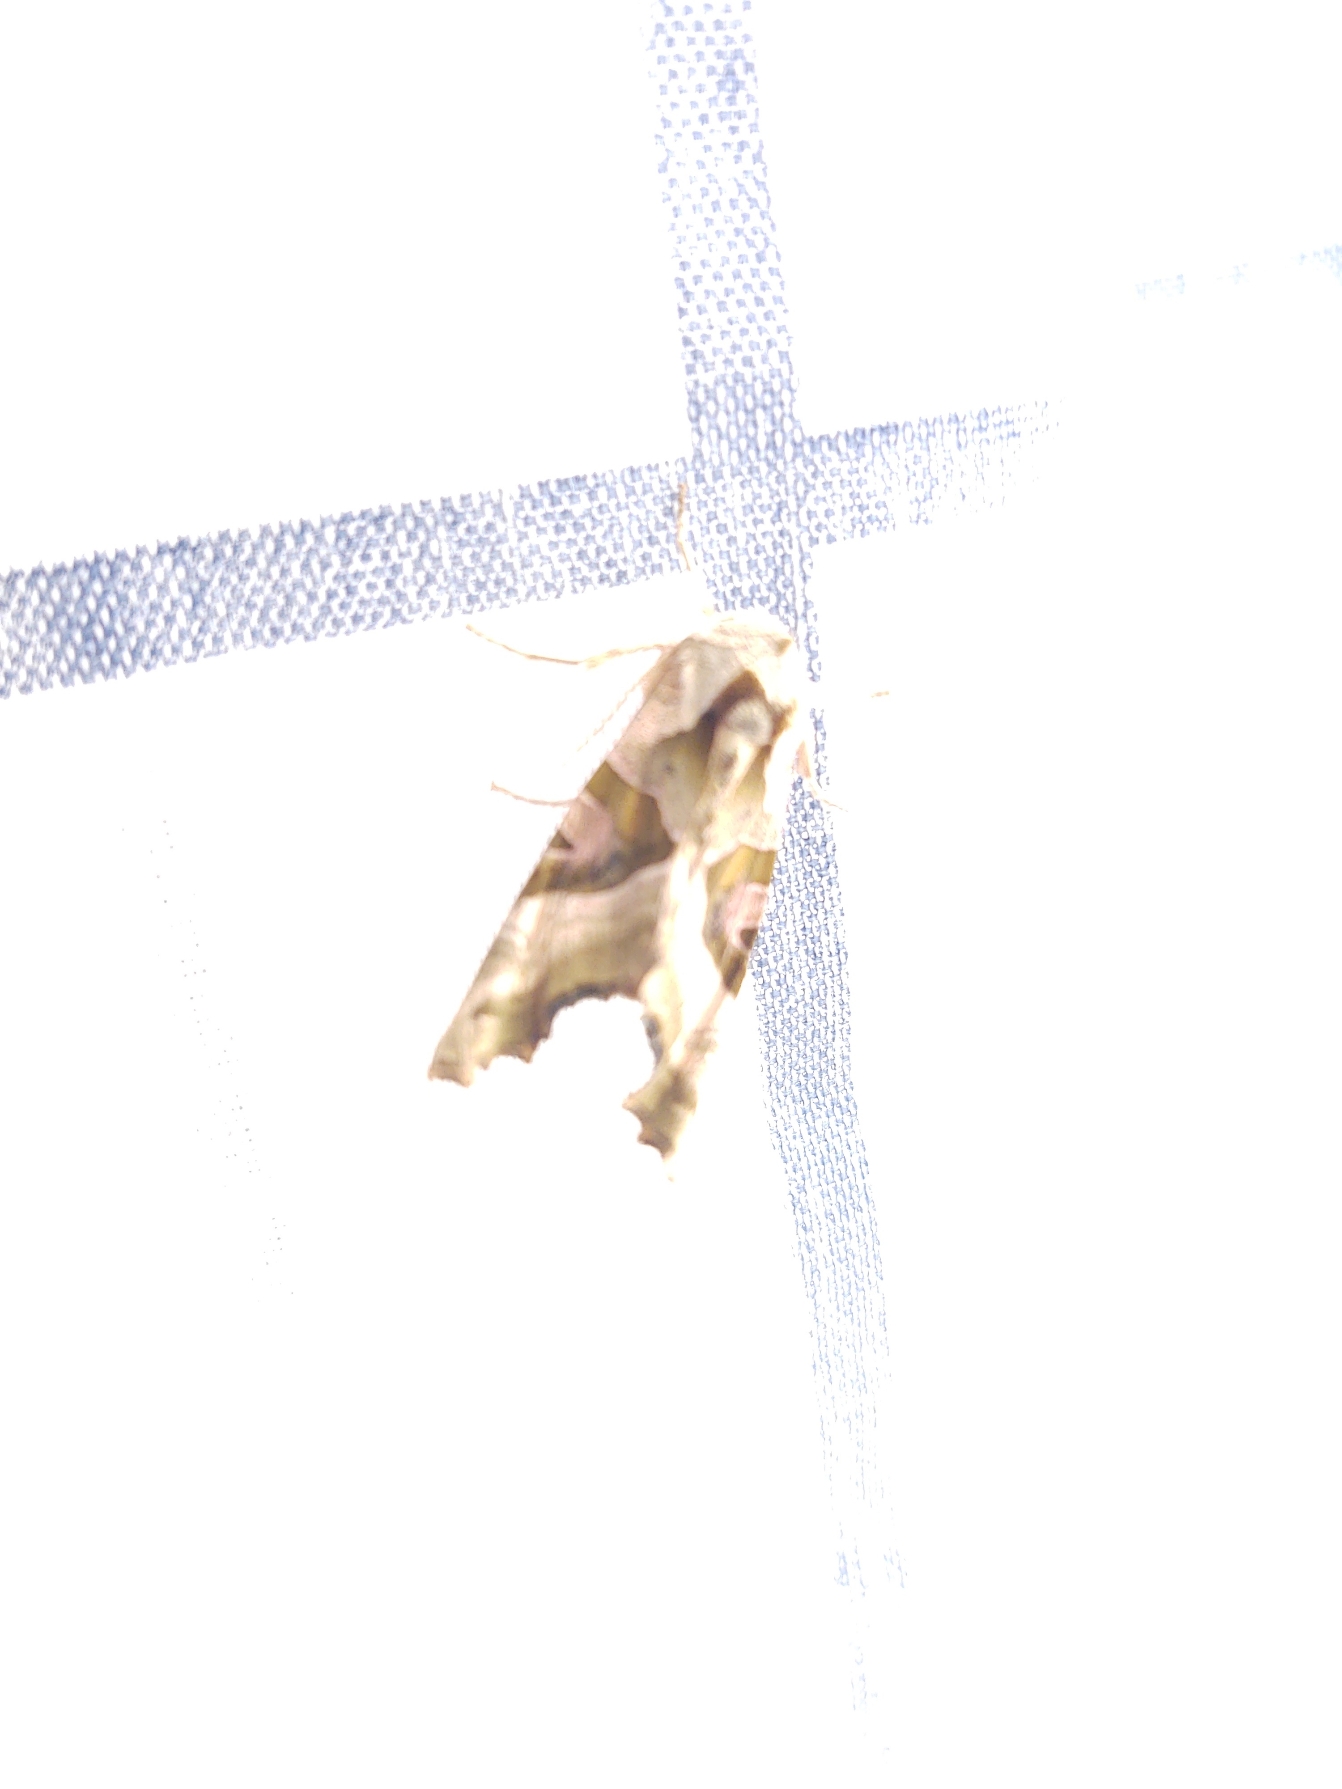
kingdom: Animalia
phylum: Arthropoda
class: Insecta
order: Lepidoptera
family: Noctuidae
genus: Phlogophora
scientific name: Phlogophora meticulosa
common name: Agatugle
